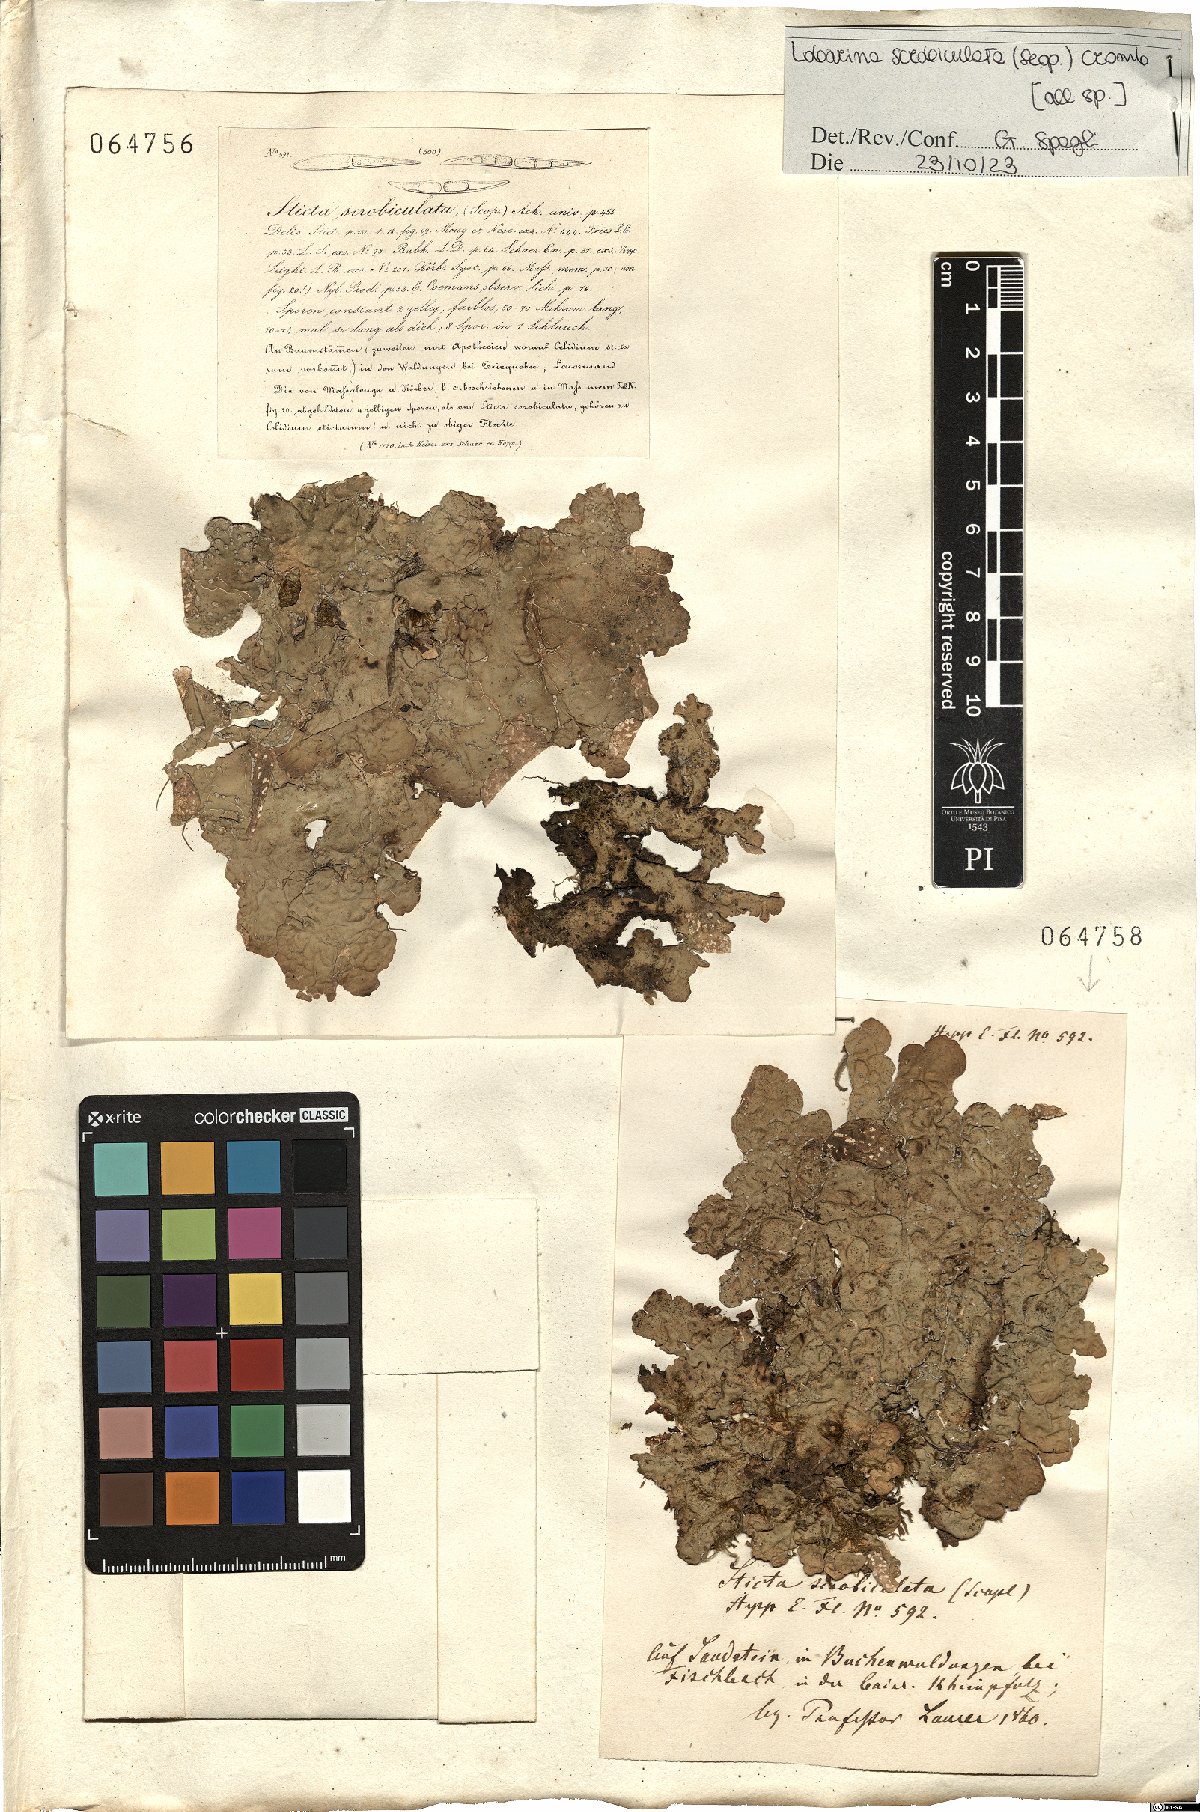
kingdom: Fungi
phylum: Ascomycota
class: Lecanoromycetes
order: Peltigerales
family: Lobariaceae
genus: Lobarina
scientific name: Lobarina scrobiculata
